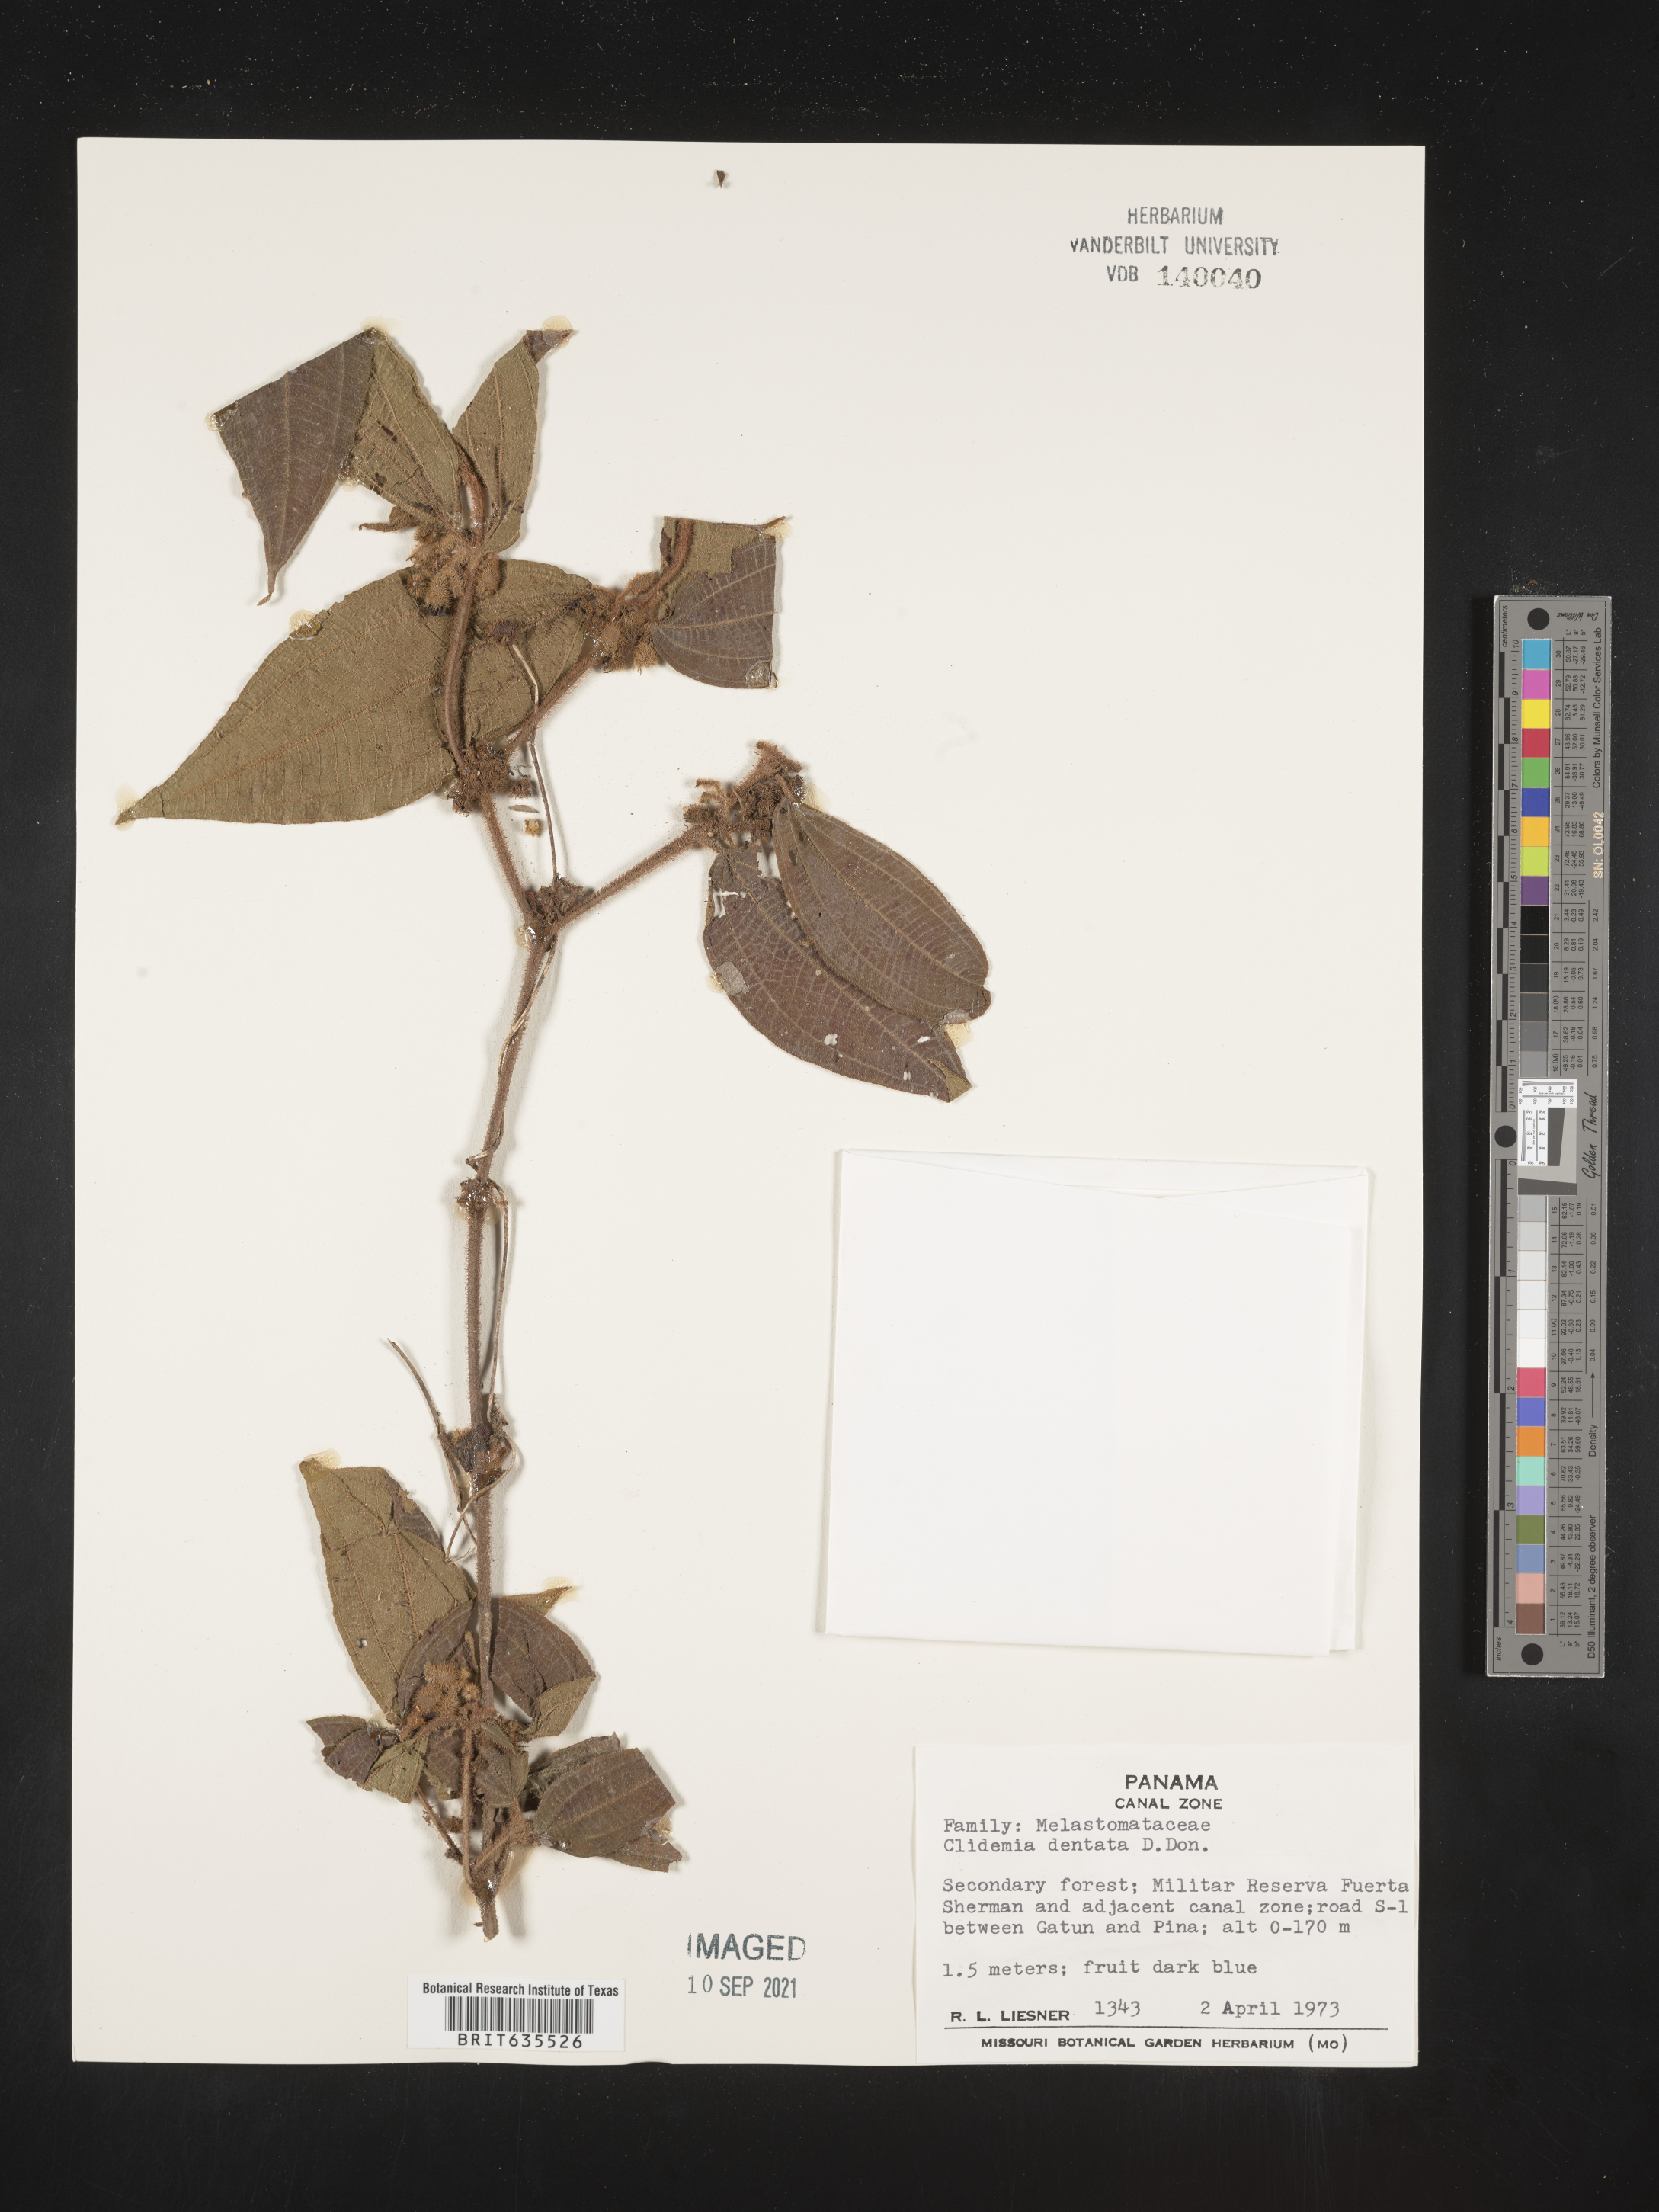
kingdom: Plantae
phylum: Tracheophyta
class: Magnoliopsida
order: Myrtales
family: Melastomataceae
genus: Miconia
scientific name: Miconia
